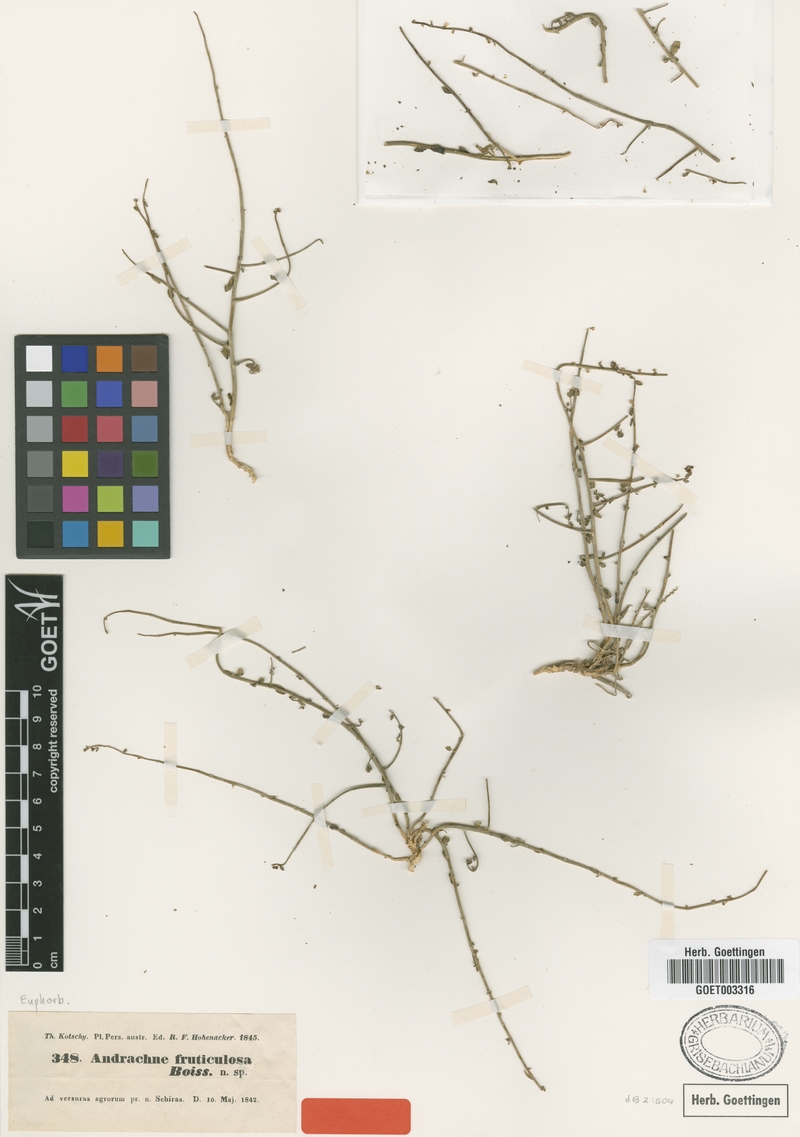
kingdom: Plantae
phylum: Tracheophyta
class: Magnoliopsida
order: Malpighiales
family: Phyllanthaceae
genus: Andrachne
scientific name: Andrachne fruticulosa
